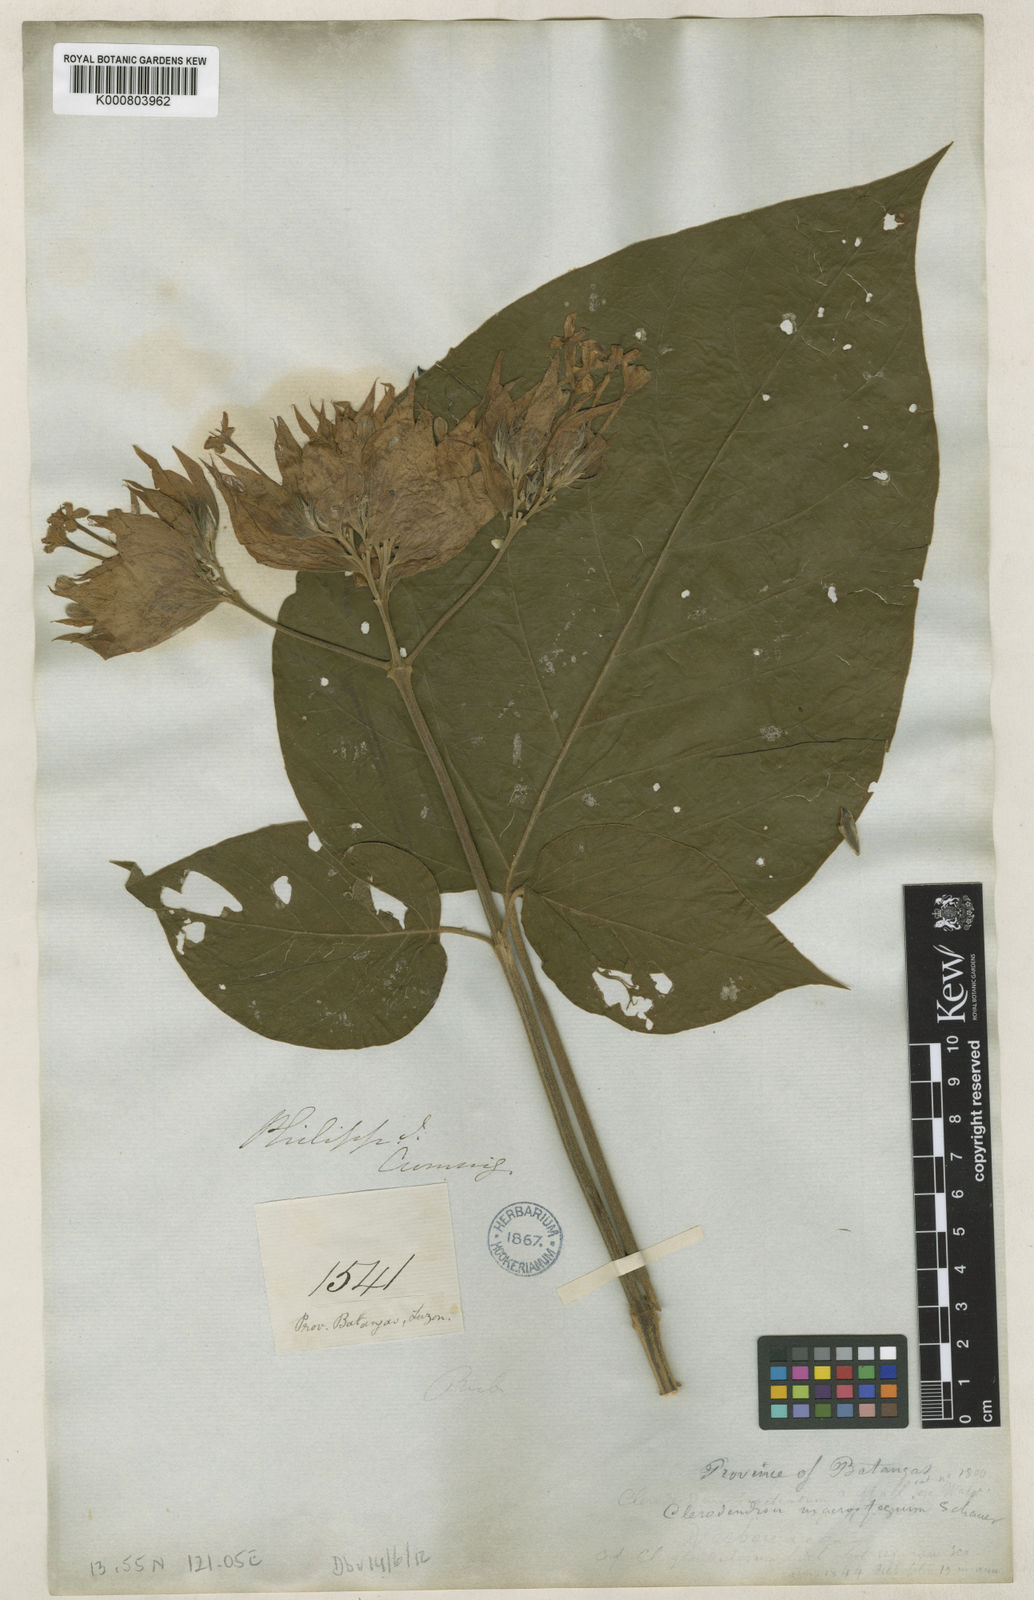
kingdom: Plantae
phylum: Tracheophyta
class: Magnoliopsida
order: Lamiales
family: Lamiaceae
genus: Clerodendrum
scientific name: Clerodendrum macrostegium
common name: Velvetleaf glorybower
